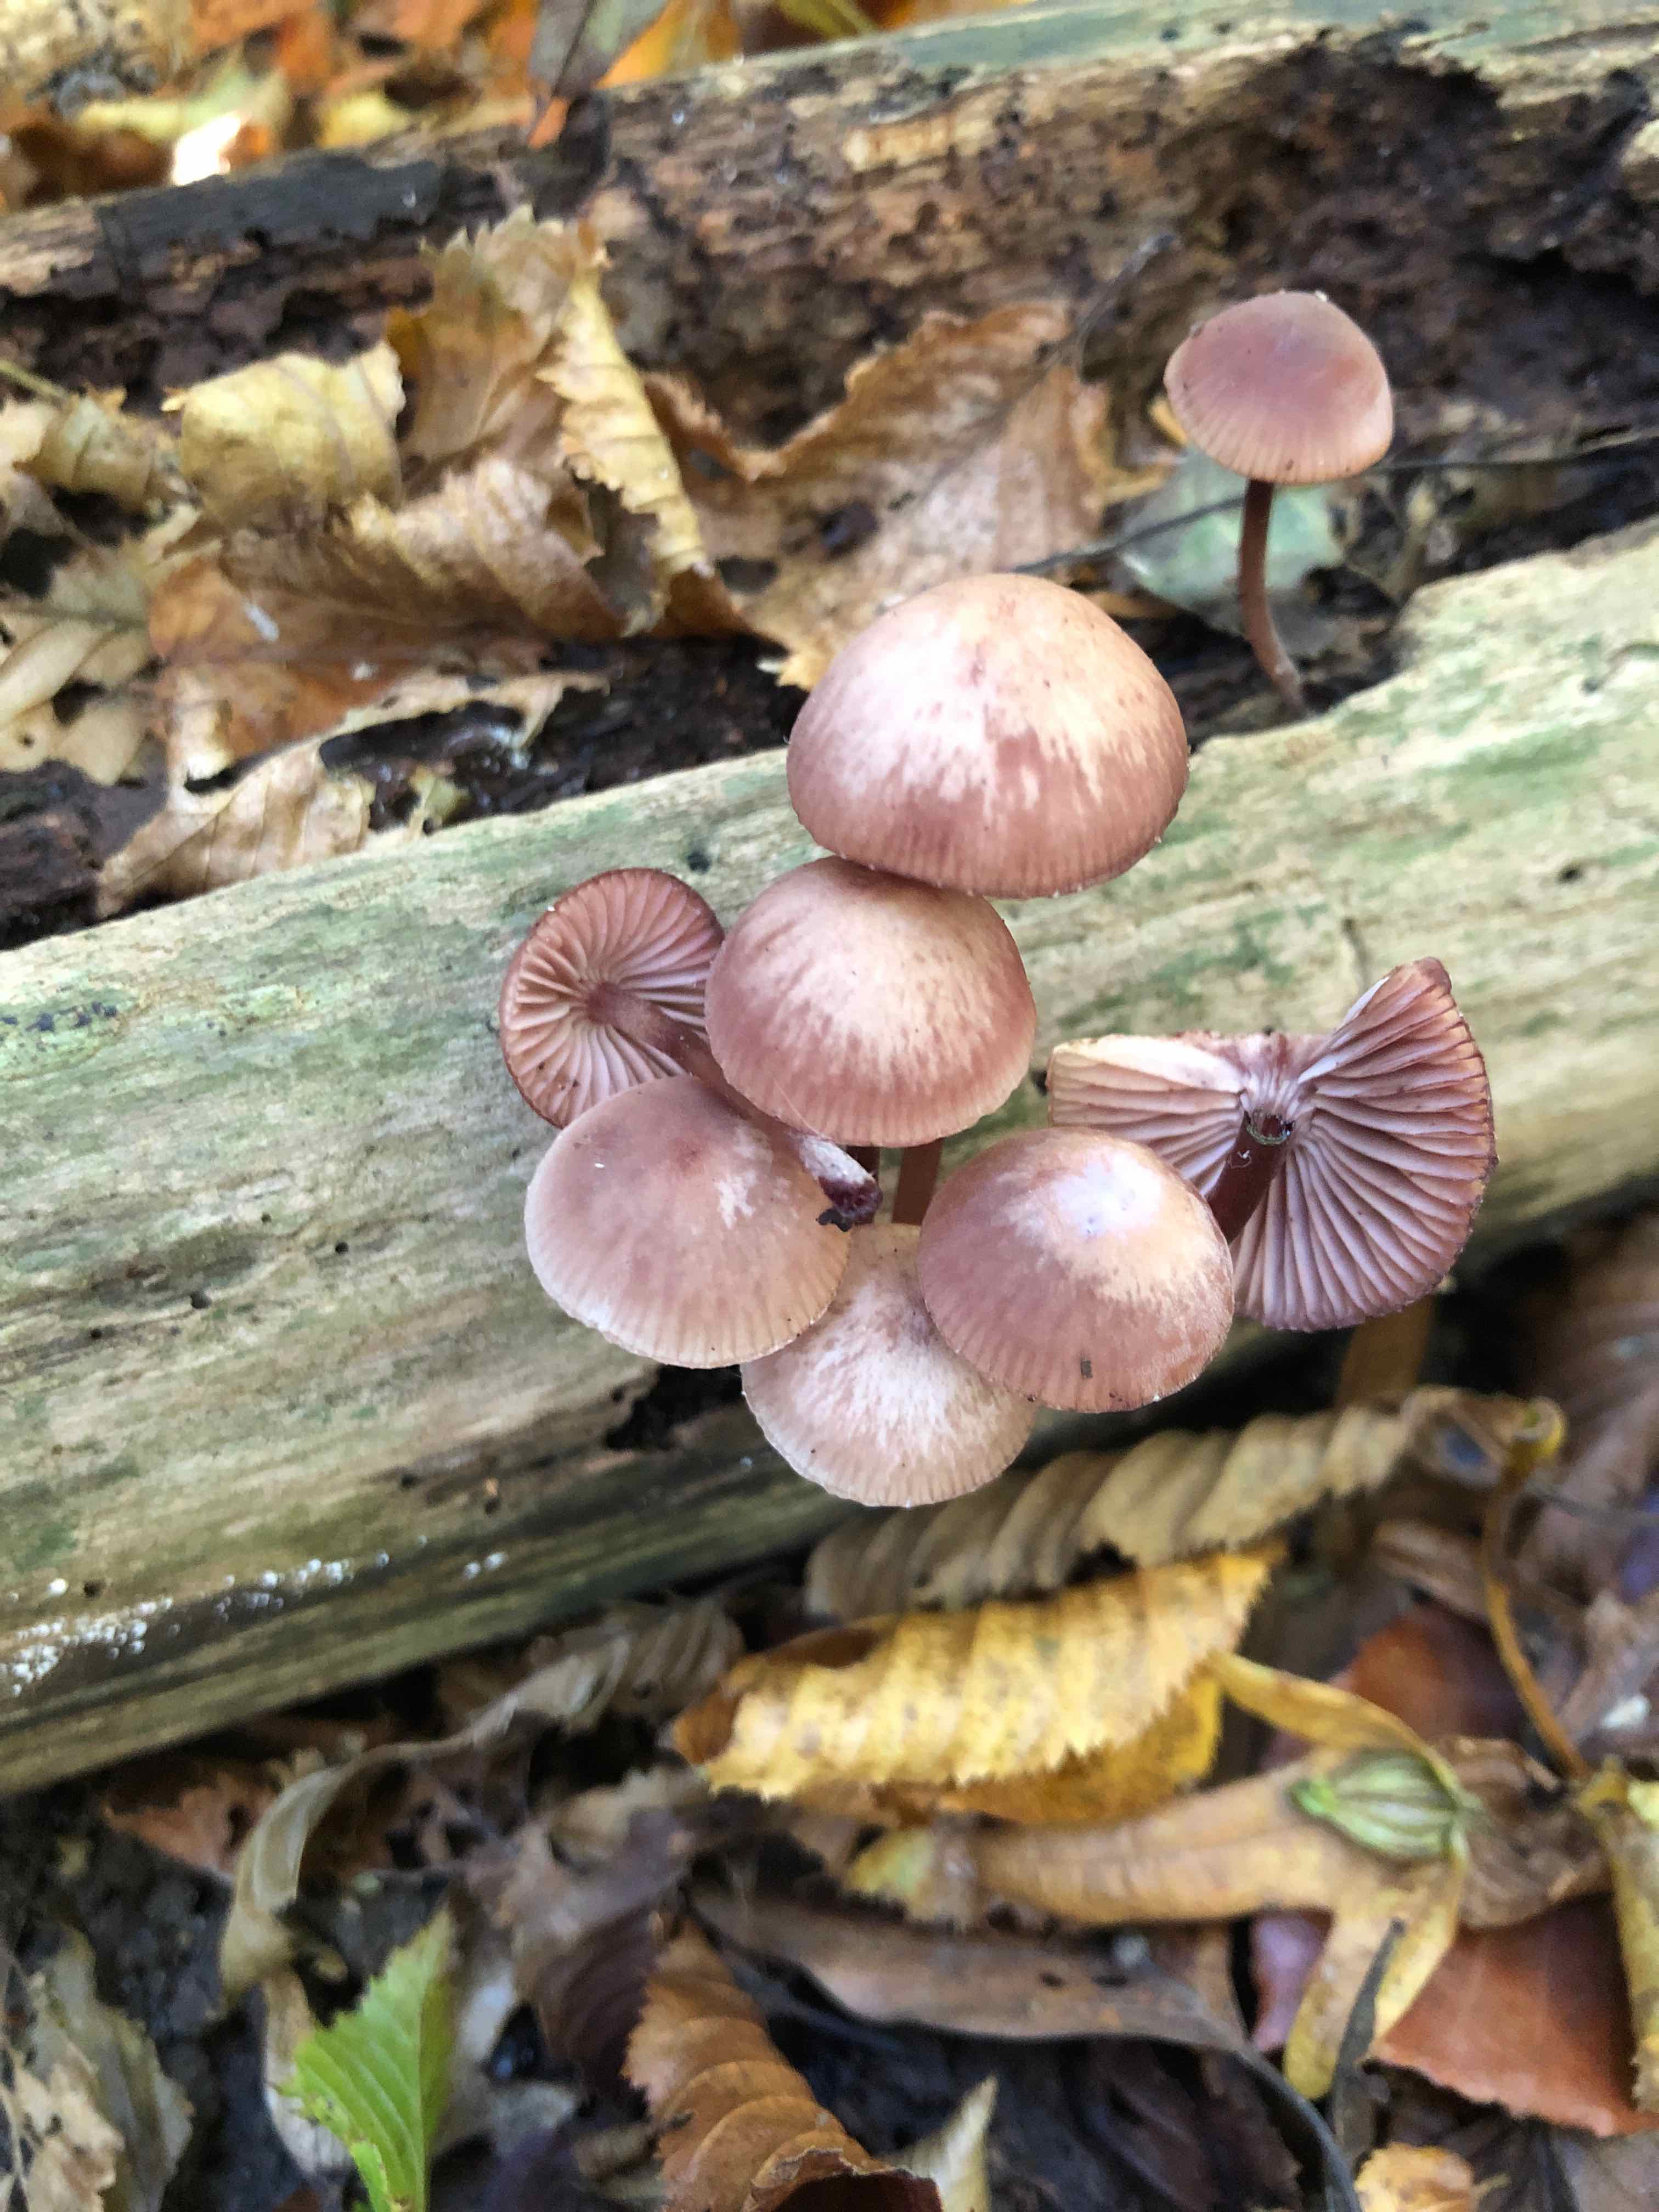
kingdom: Fungi
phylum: Basidiomycota
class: Agaricomycetes
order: Agaricales
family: Mycenaceae
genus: Mycena
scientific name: Mycena haematopus
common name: blødende huesvamp
